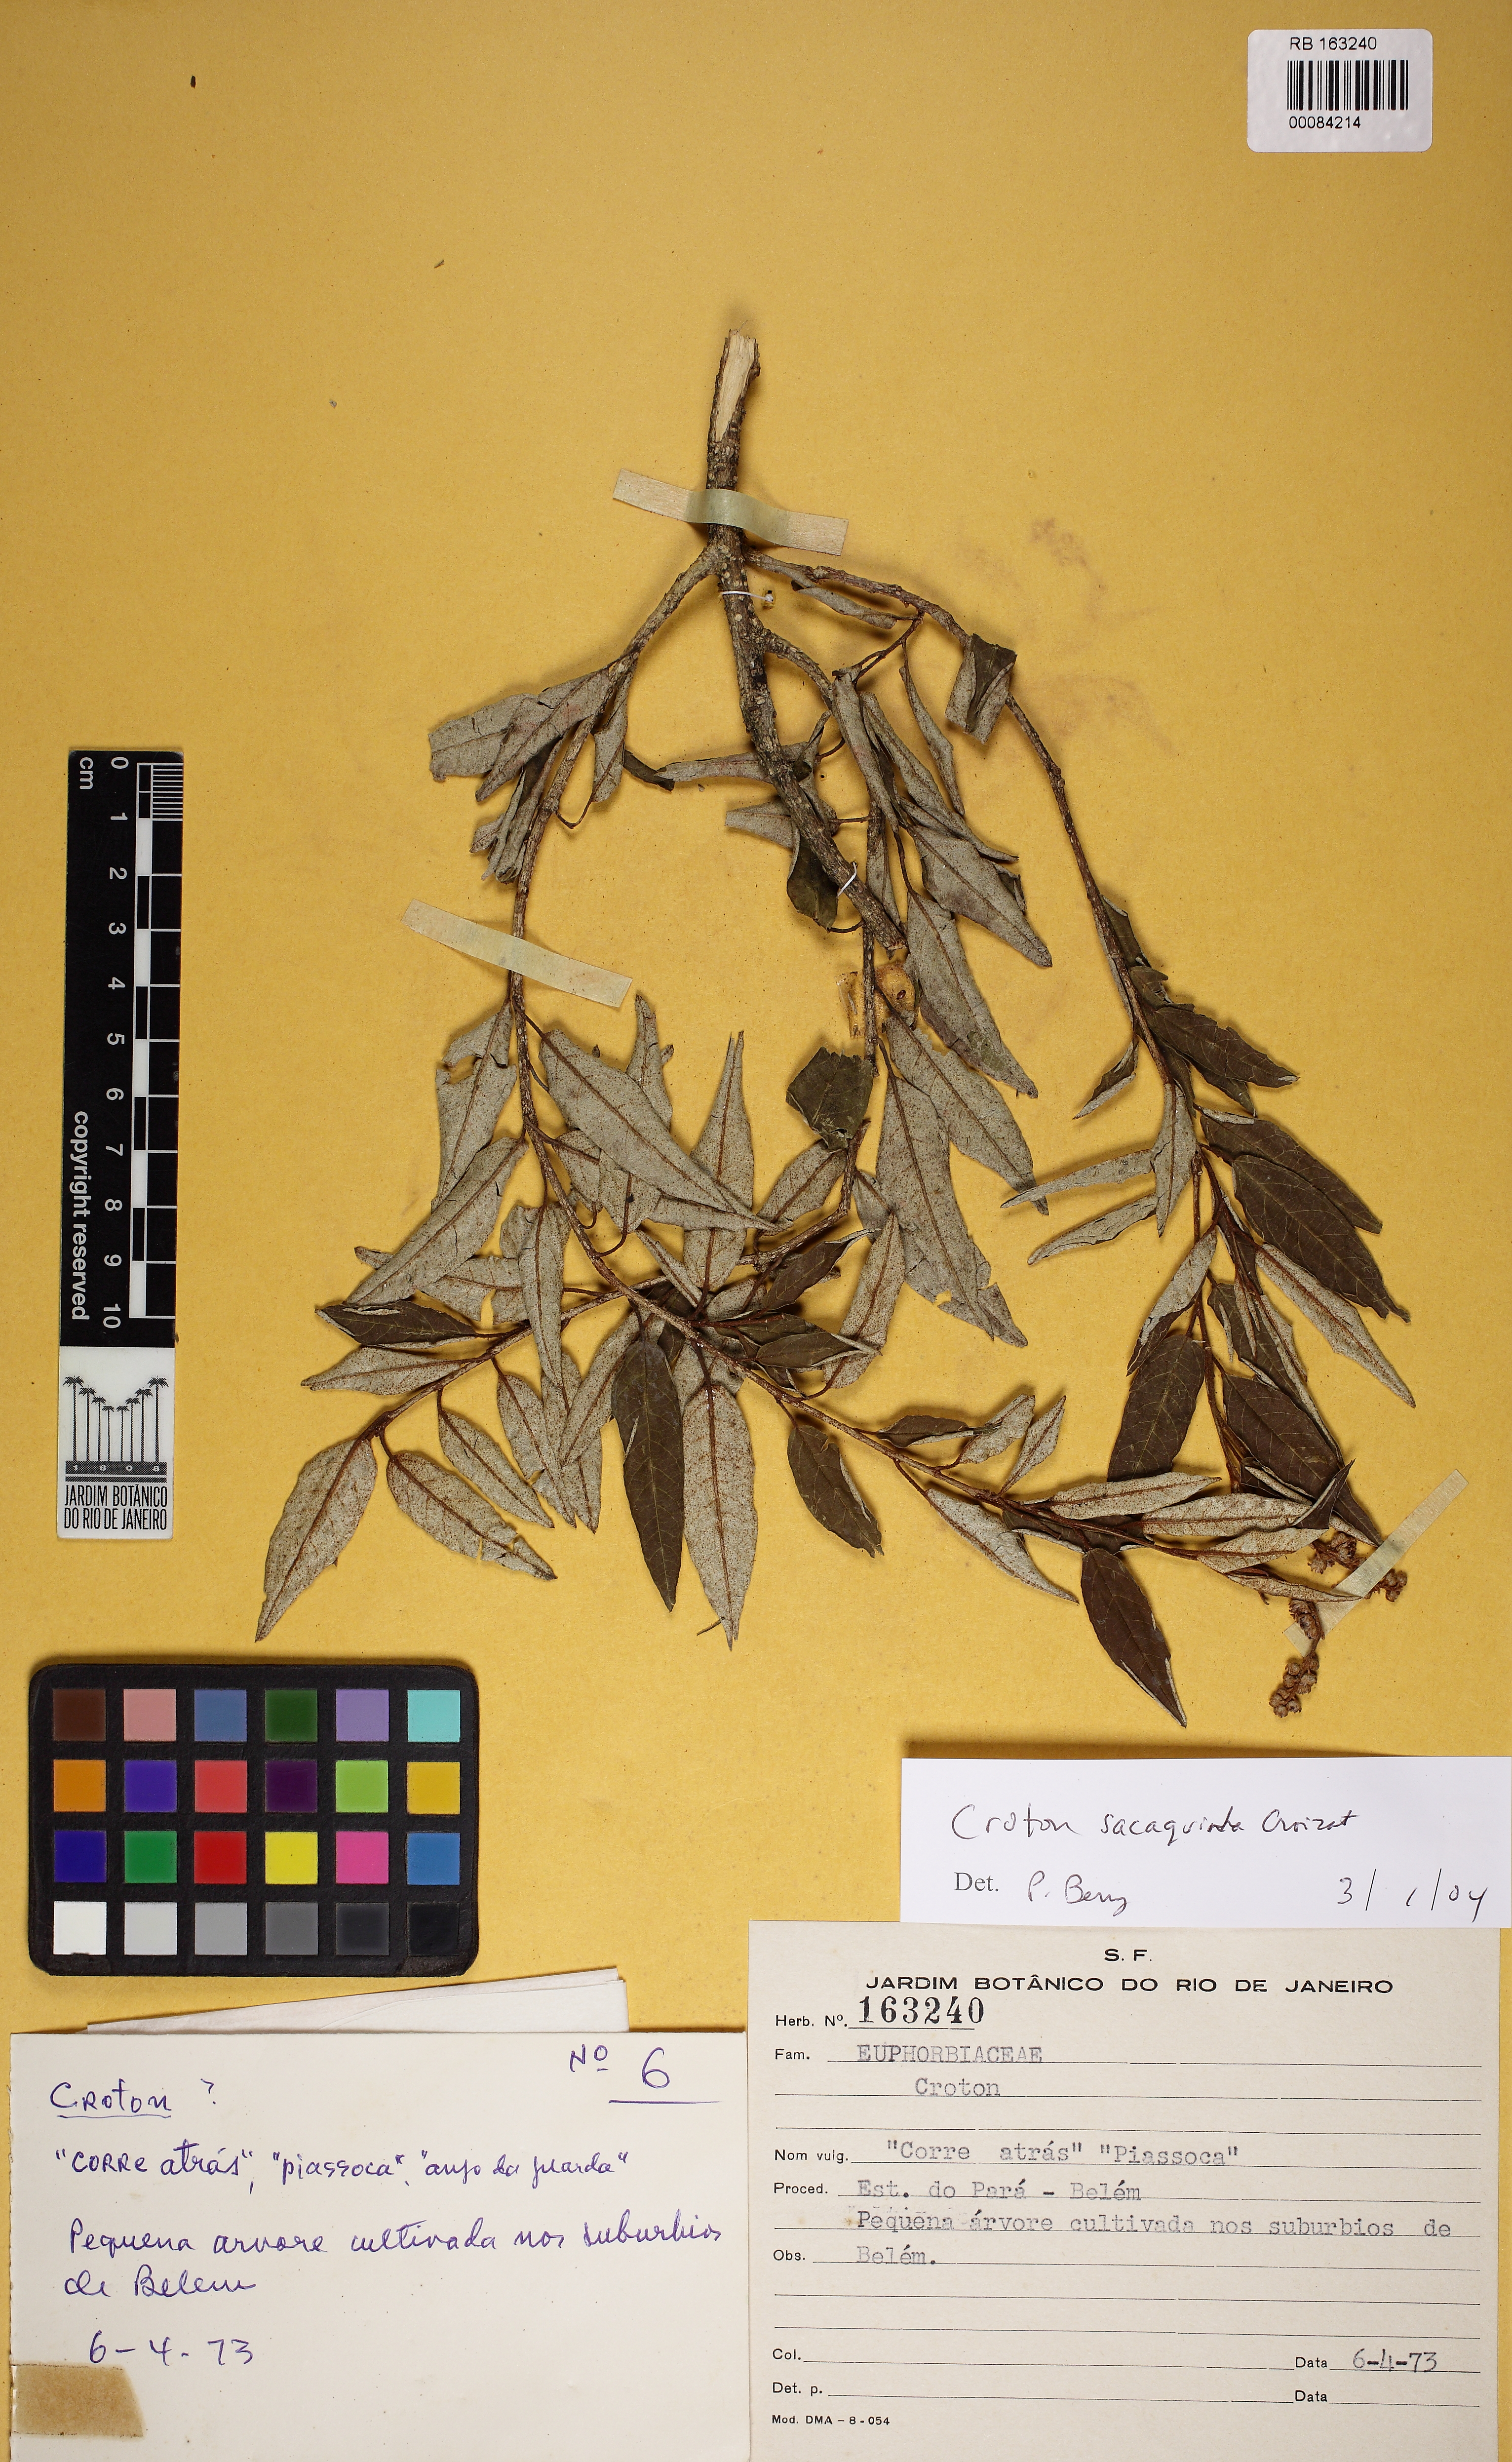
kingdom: Plantae
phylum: Tracheophyta
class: Magnoliopsida
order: Malpighiales
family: Euphorbiaceae
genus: Croton
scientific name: Croton sacaquinha
